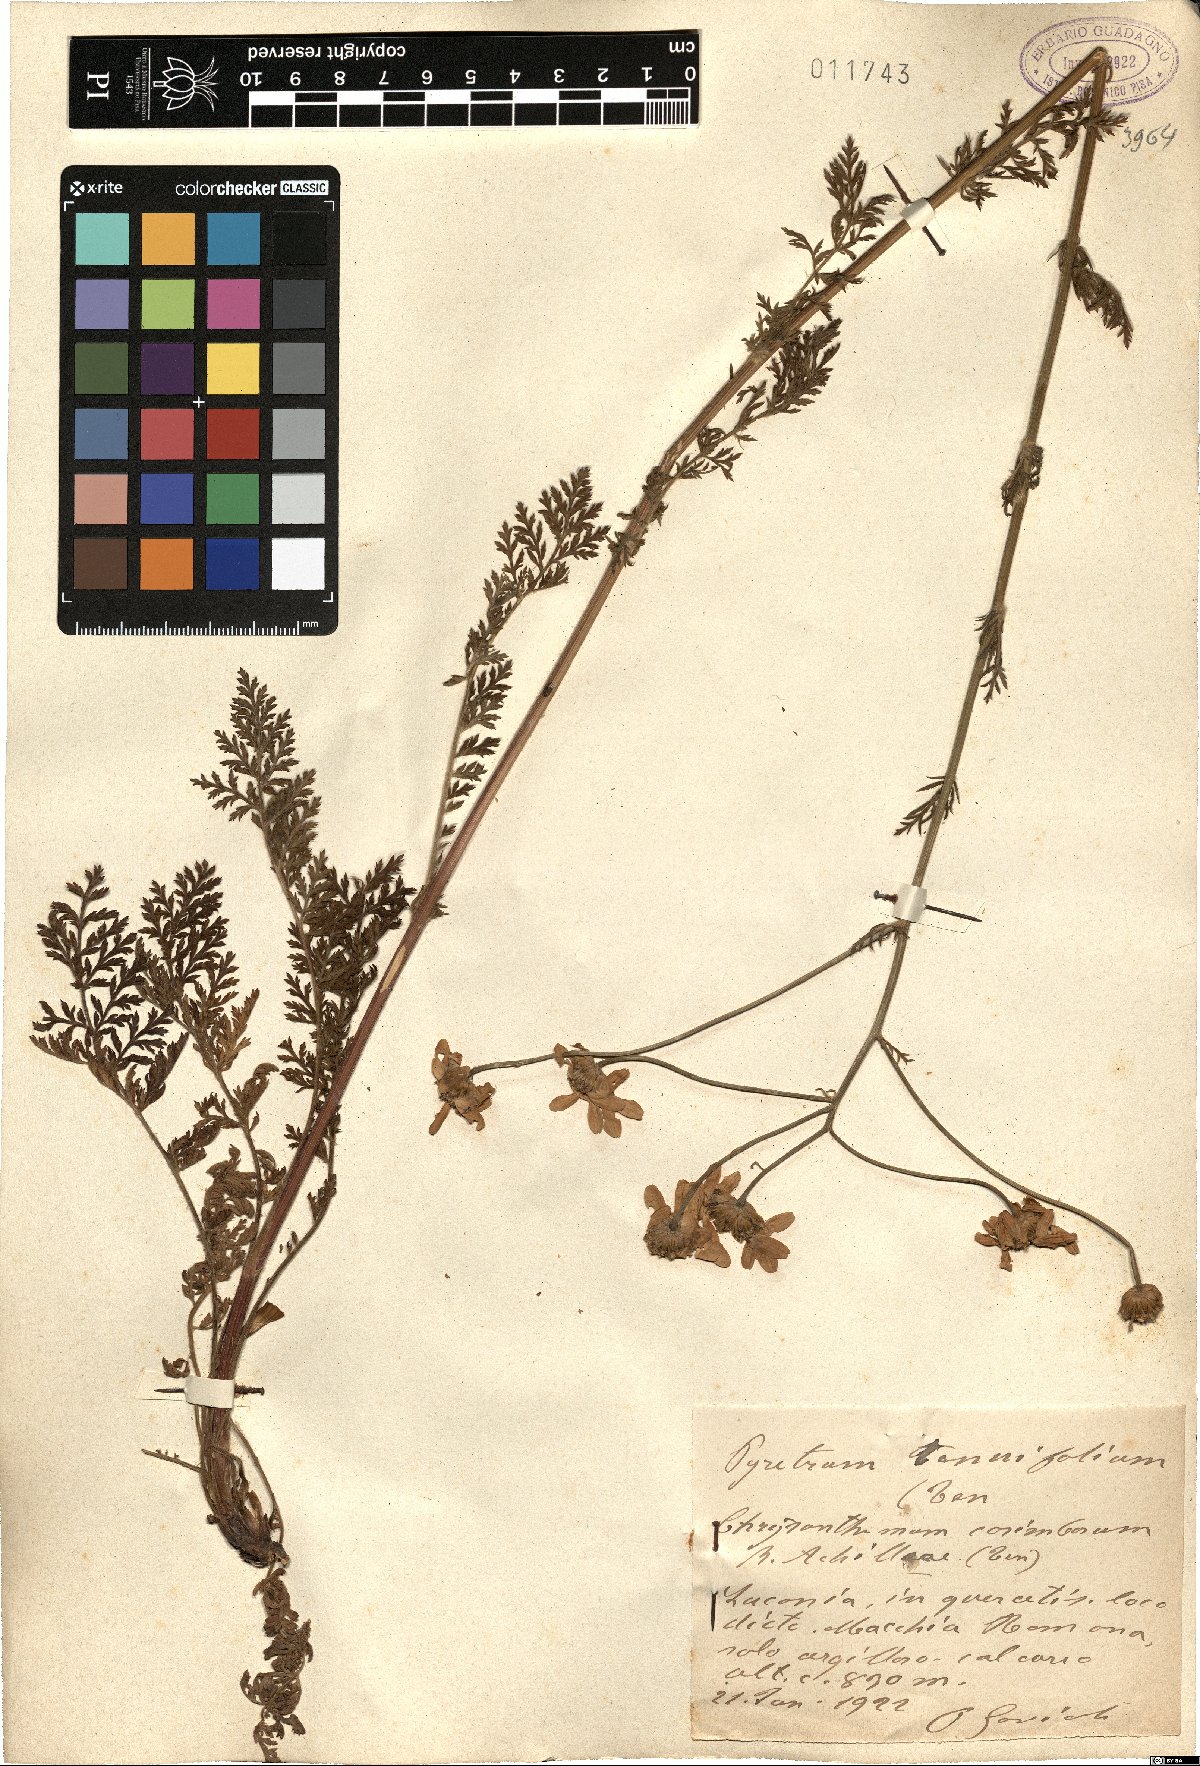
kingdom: Plantae
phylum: Tracheophyta
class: Magnoliopsida
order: Asterales
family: Asteraceae
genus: Tanacetum
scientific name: Tanacetum corymbosum
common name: Scentless feverfew
